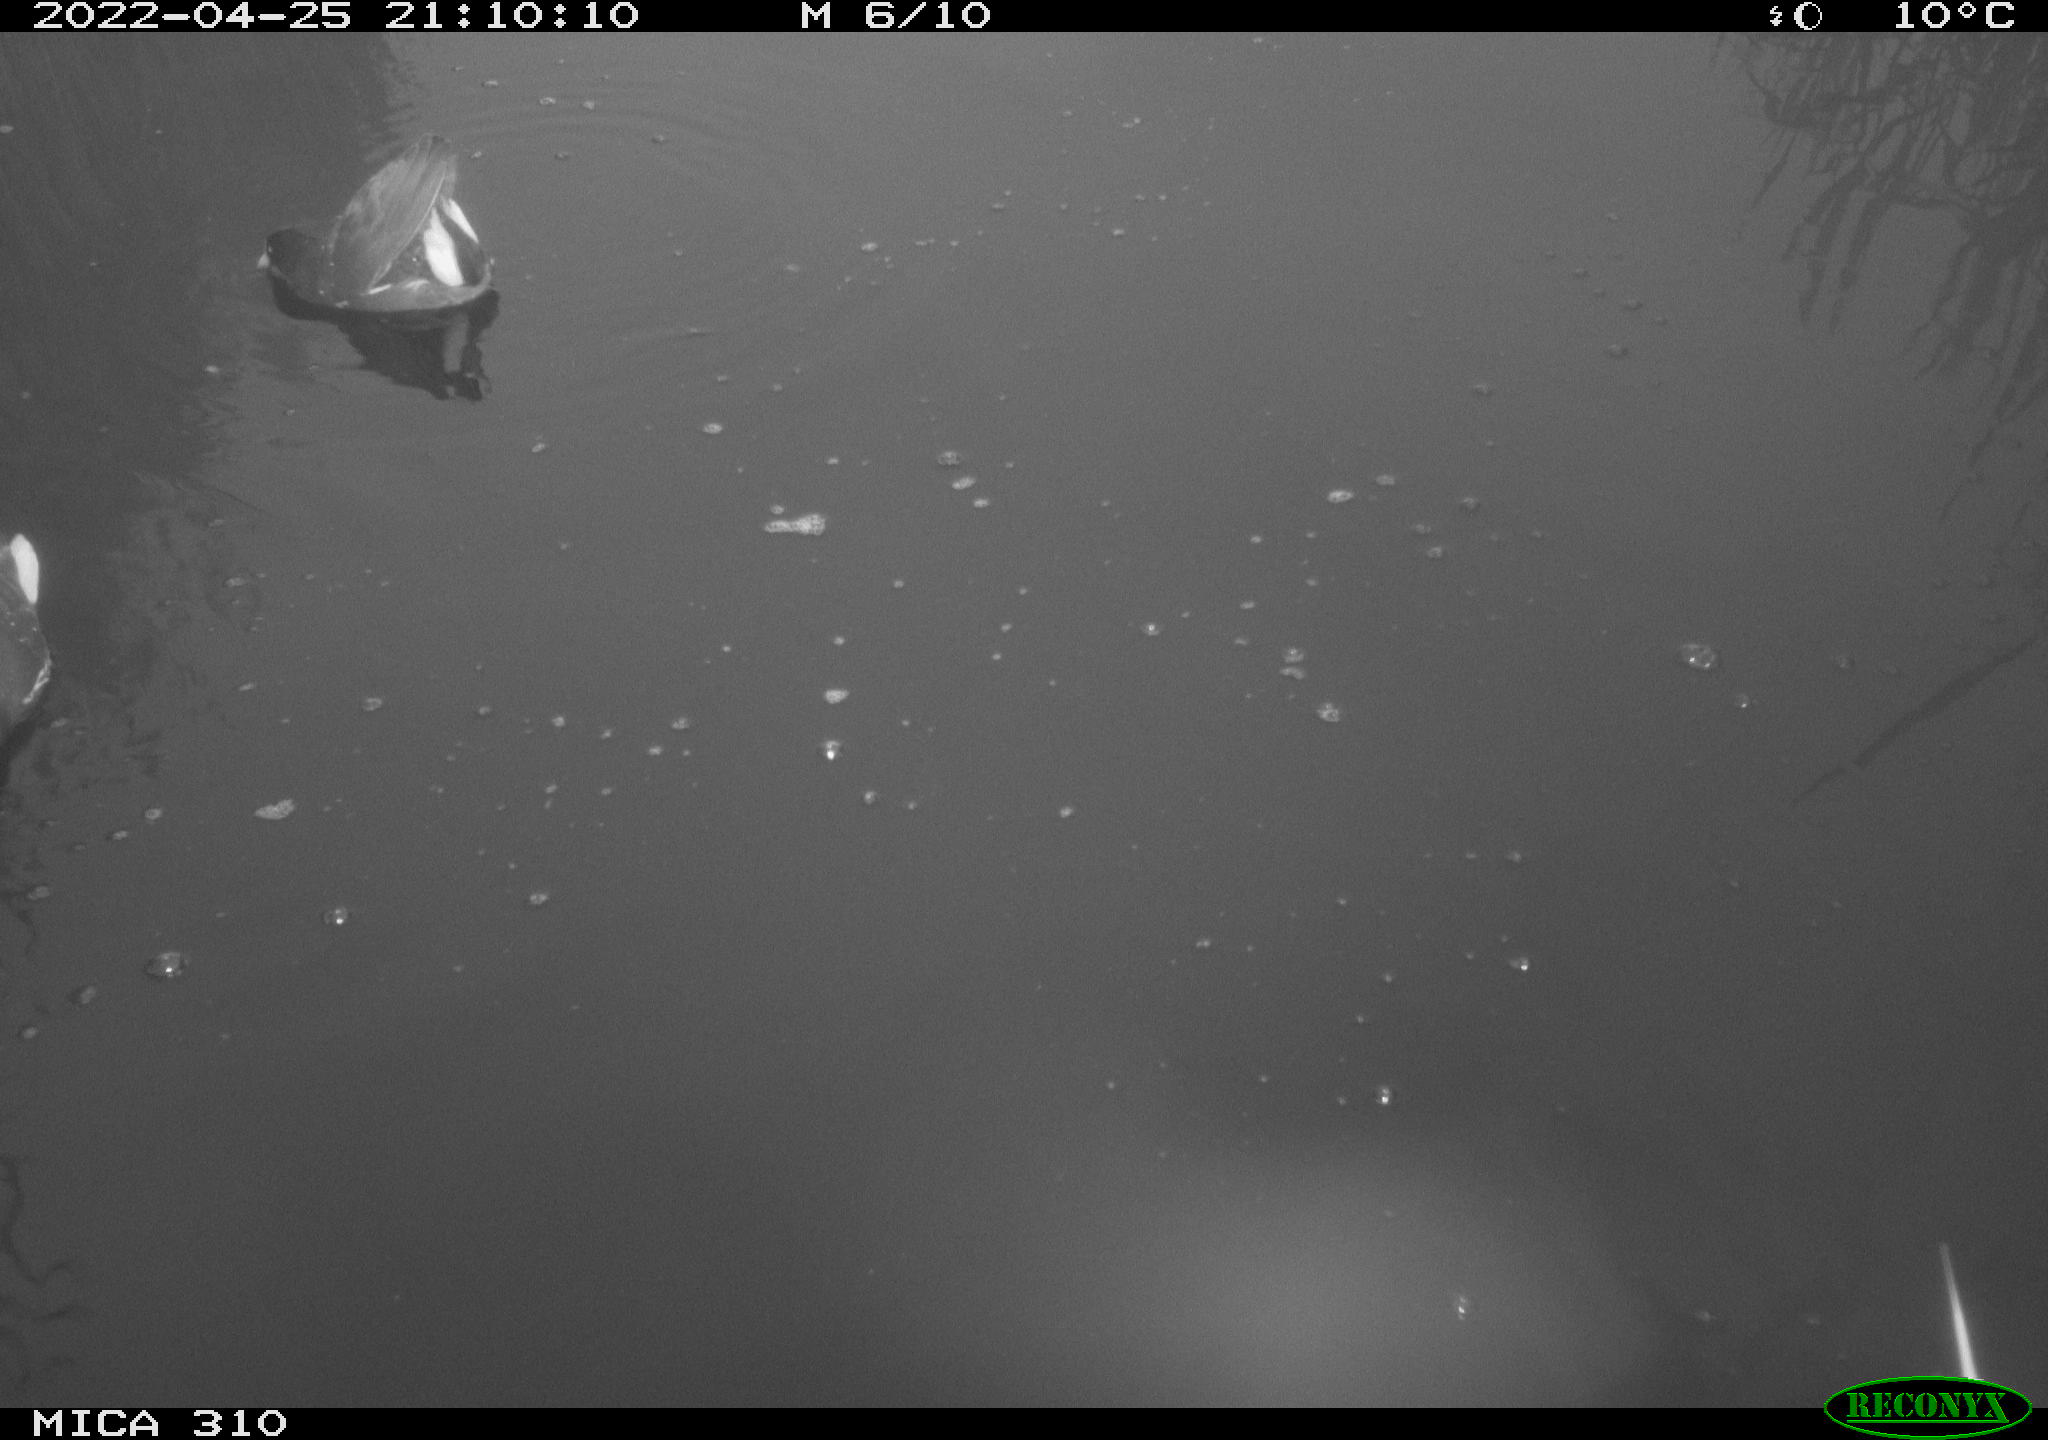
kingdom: Animalia
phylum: Chordata
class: Aves
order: Gruiformes
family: Rallidae
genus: Gallinula
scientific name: Gallinula chloropus
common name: Common moorhen
